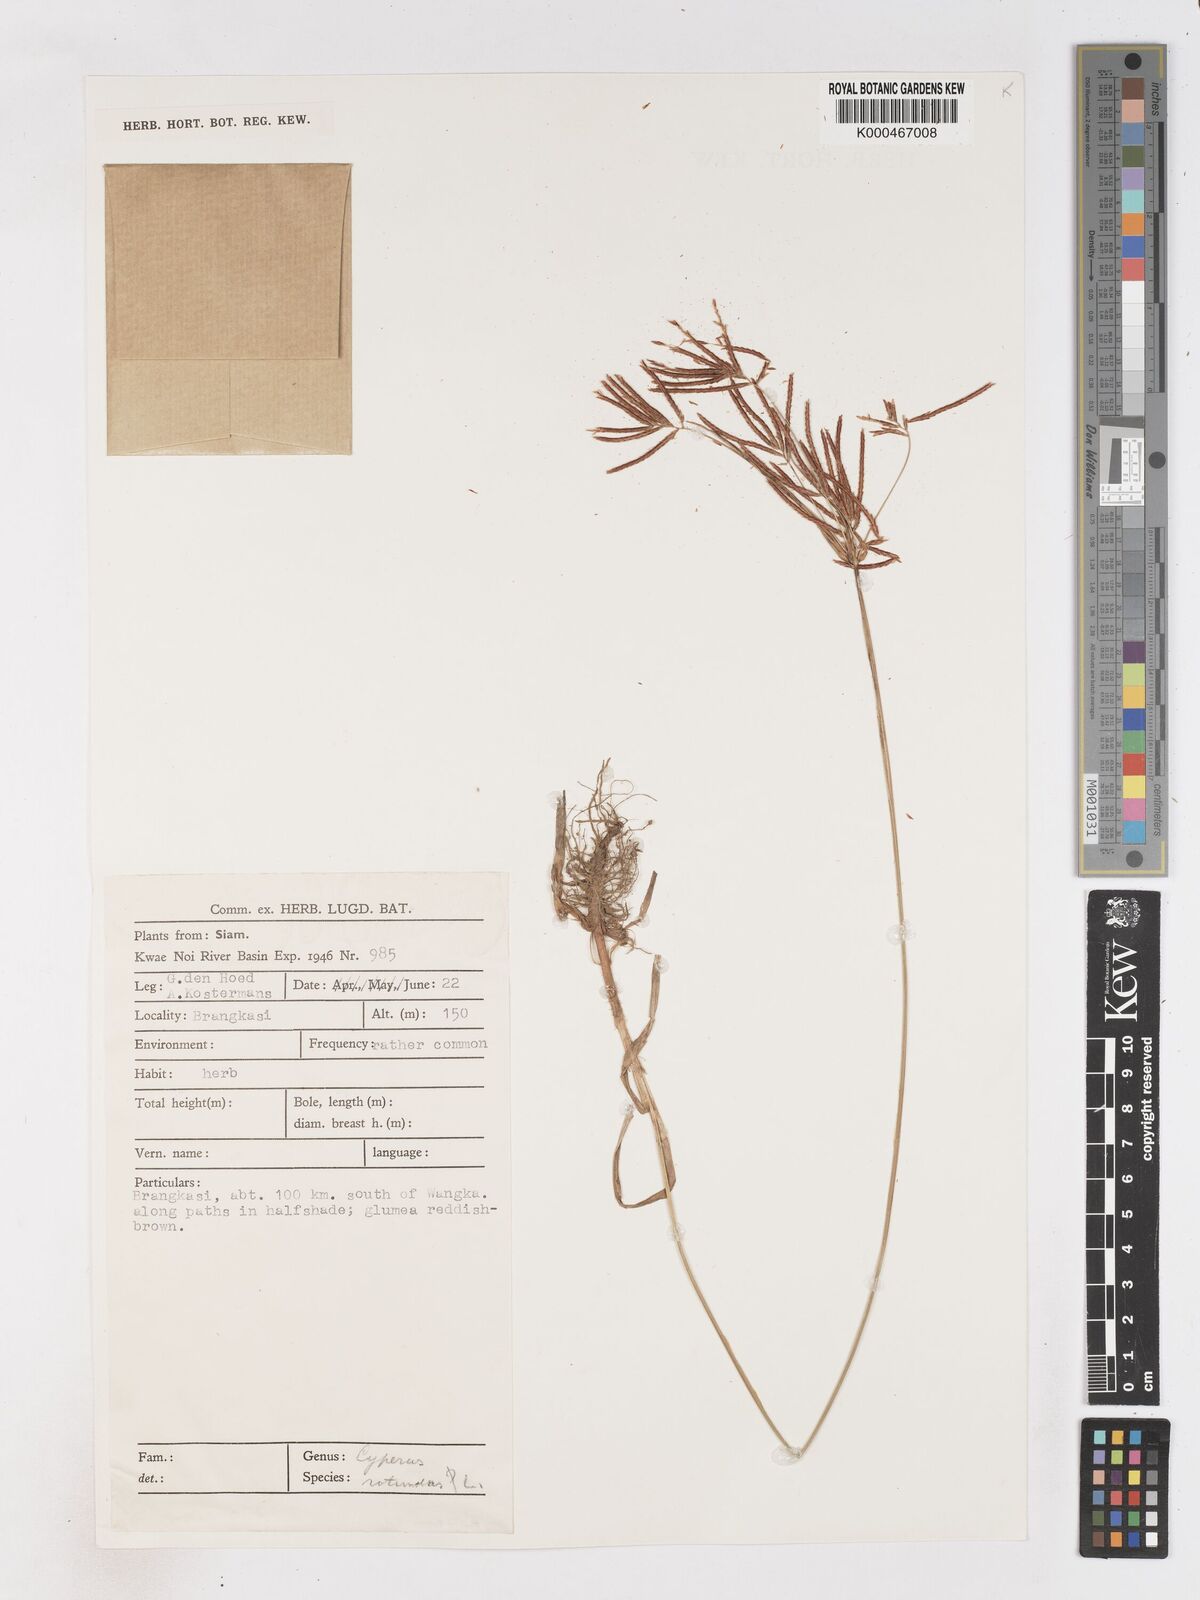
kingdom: Plantae
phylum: Tracheophyta
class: Liliopsida
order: Poales
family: Cyperaceae
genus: Cyperus
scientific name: Cyperus rotundus
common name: Nutgrass
